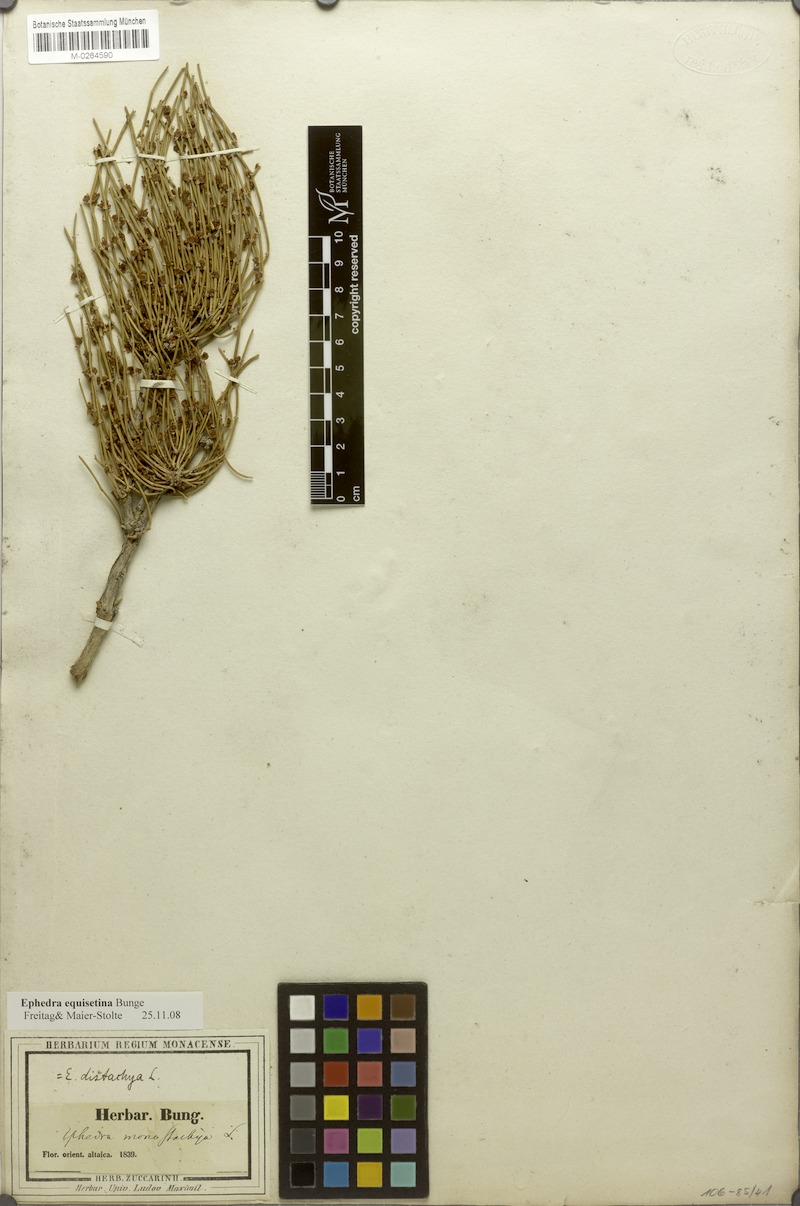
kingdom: Plantae
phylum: Tracheophyta
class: Gnetopsida
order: Ephedrales
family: Ephedraceae
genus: Ephedra
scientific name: Ephedra equisetina
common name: Mongolian ephedra
